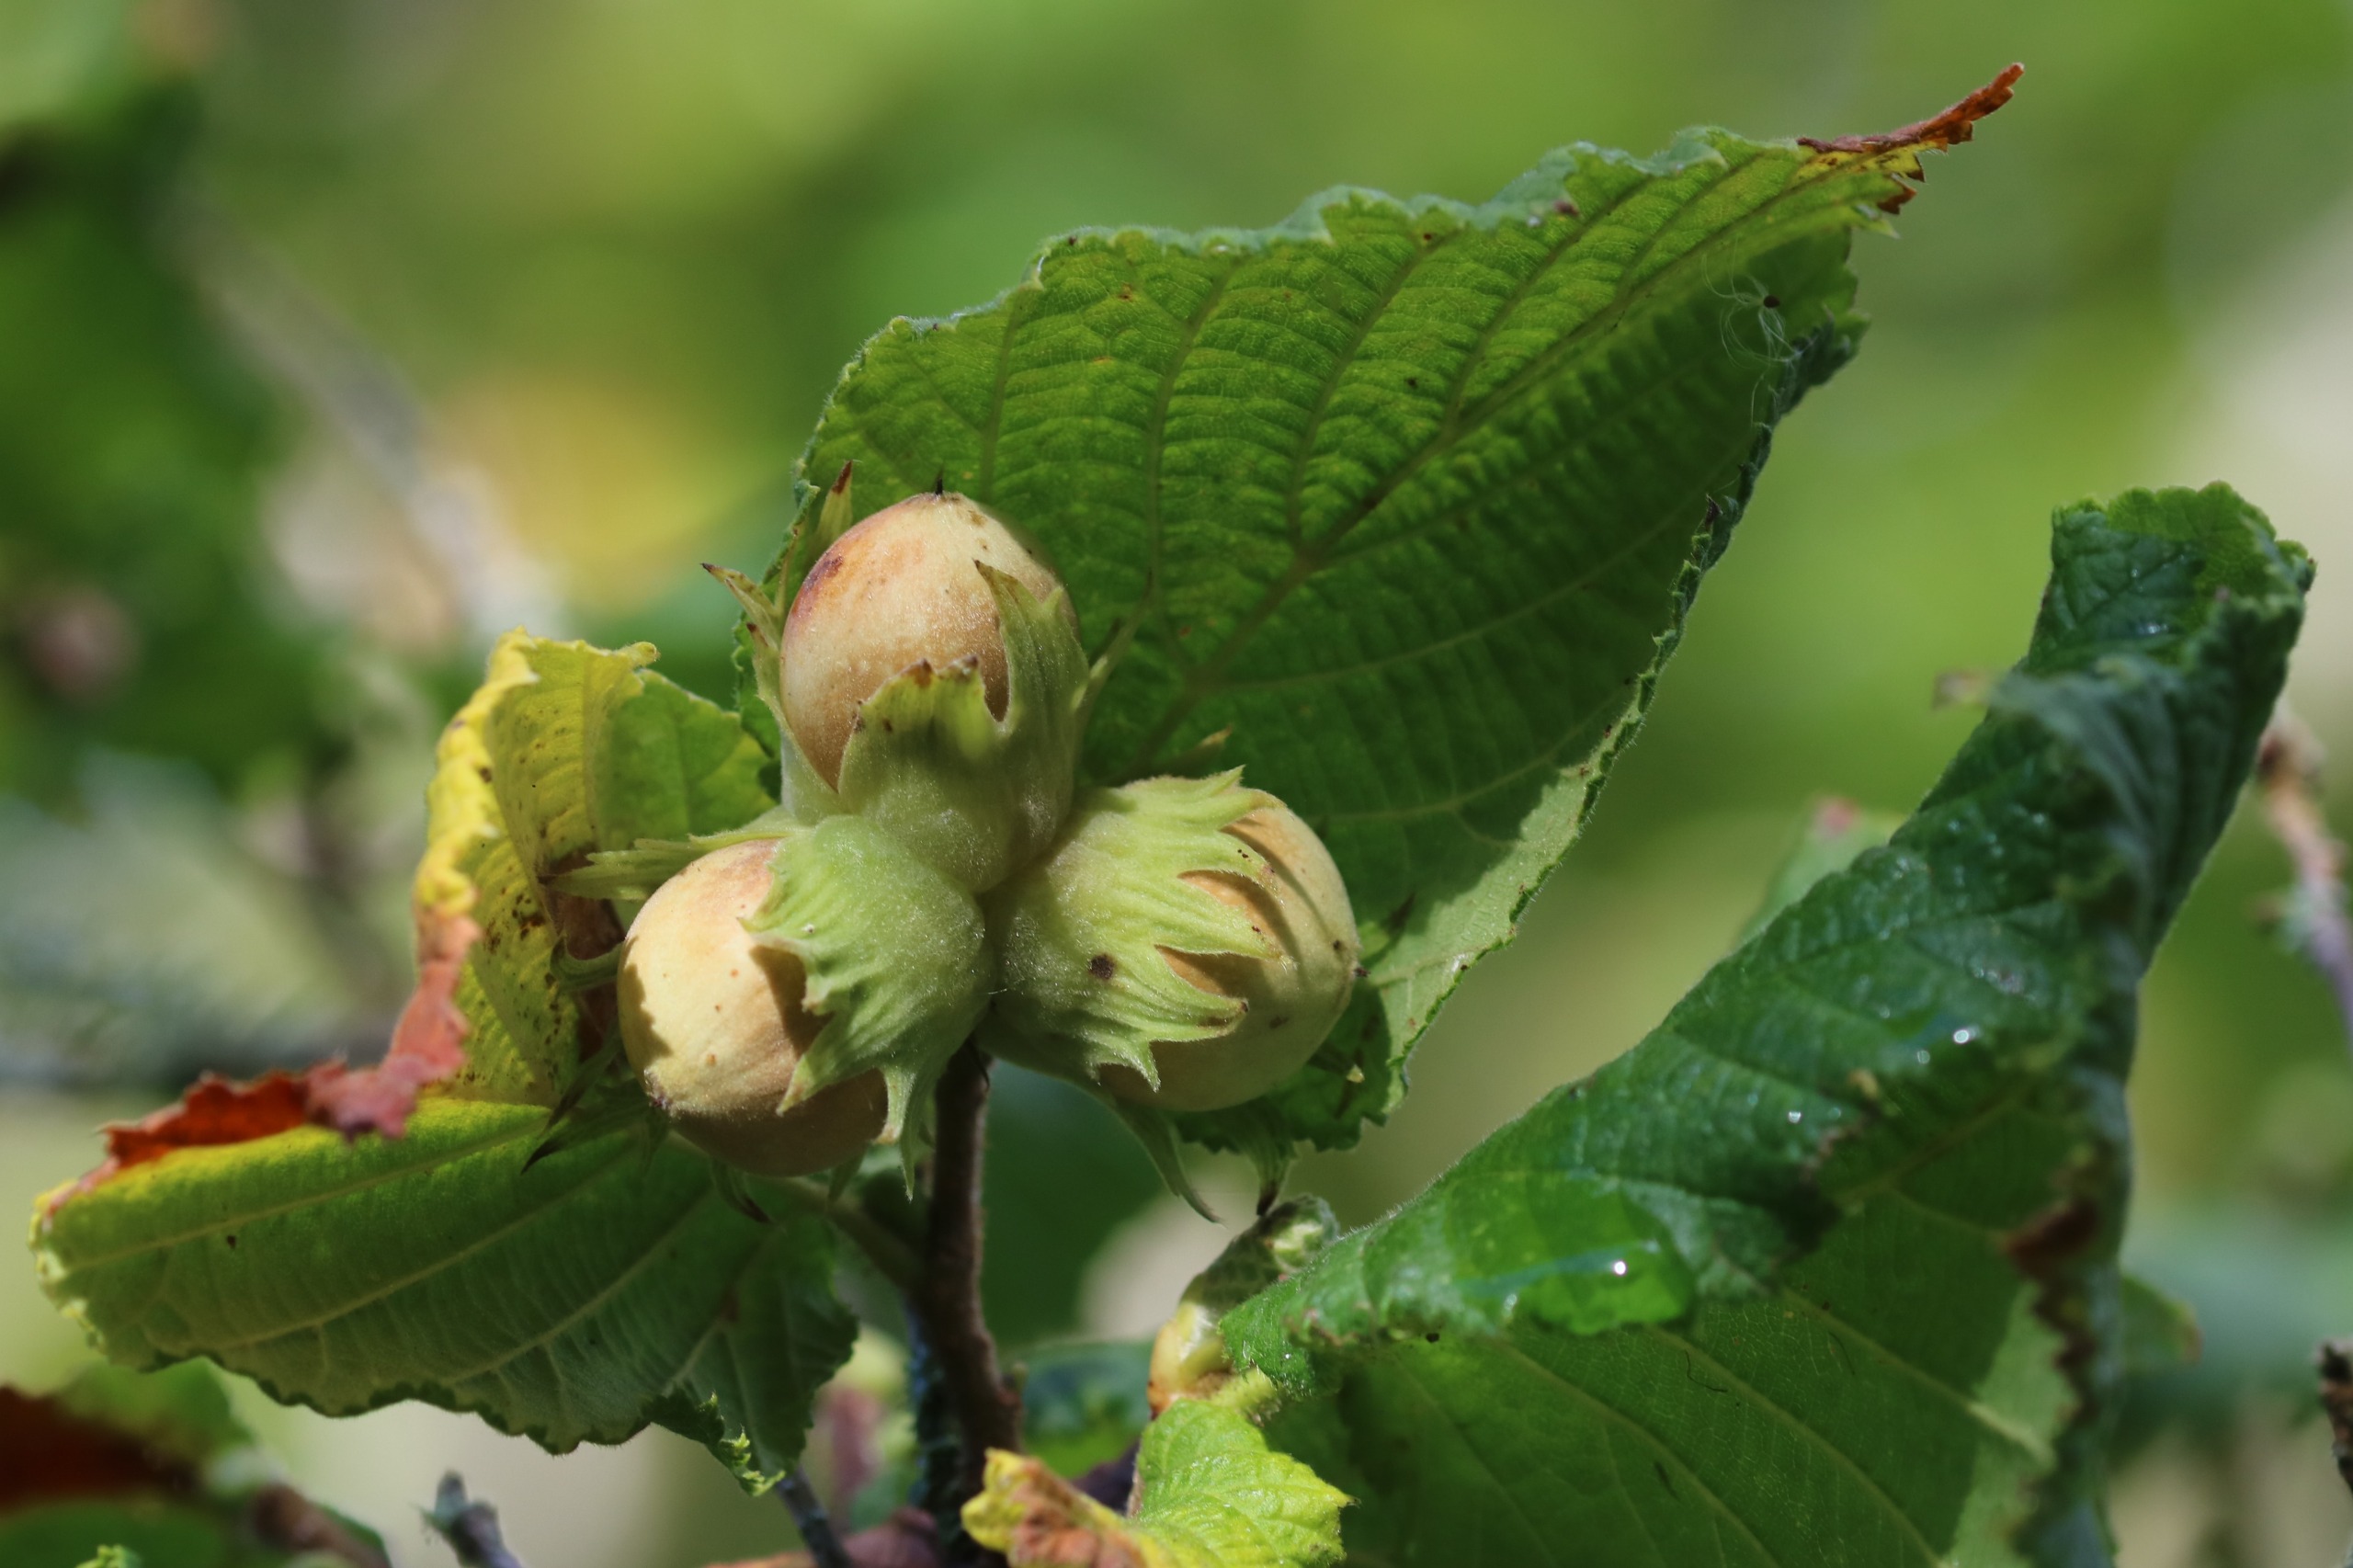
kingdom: Plantae
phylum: Tracheophyta
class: Magnoliopsida
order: Fagales
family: Betulaceae
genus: Corylus
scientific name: Corylus avellana
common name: Hassel
